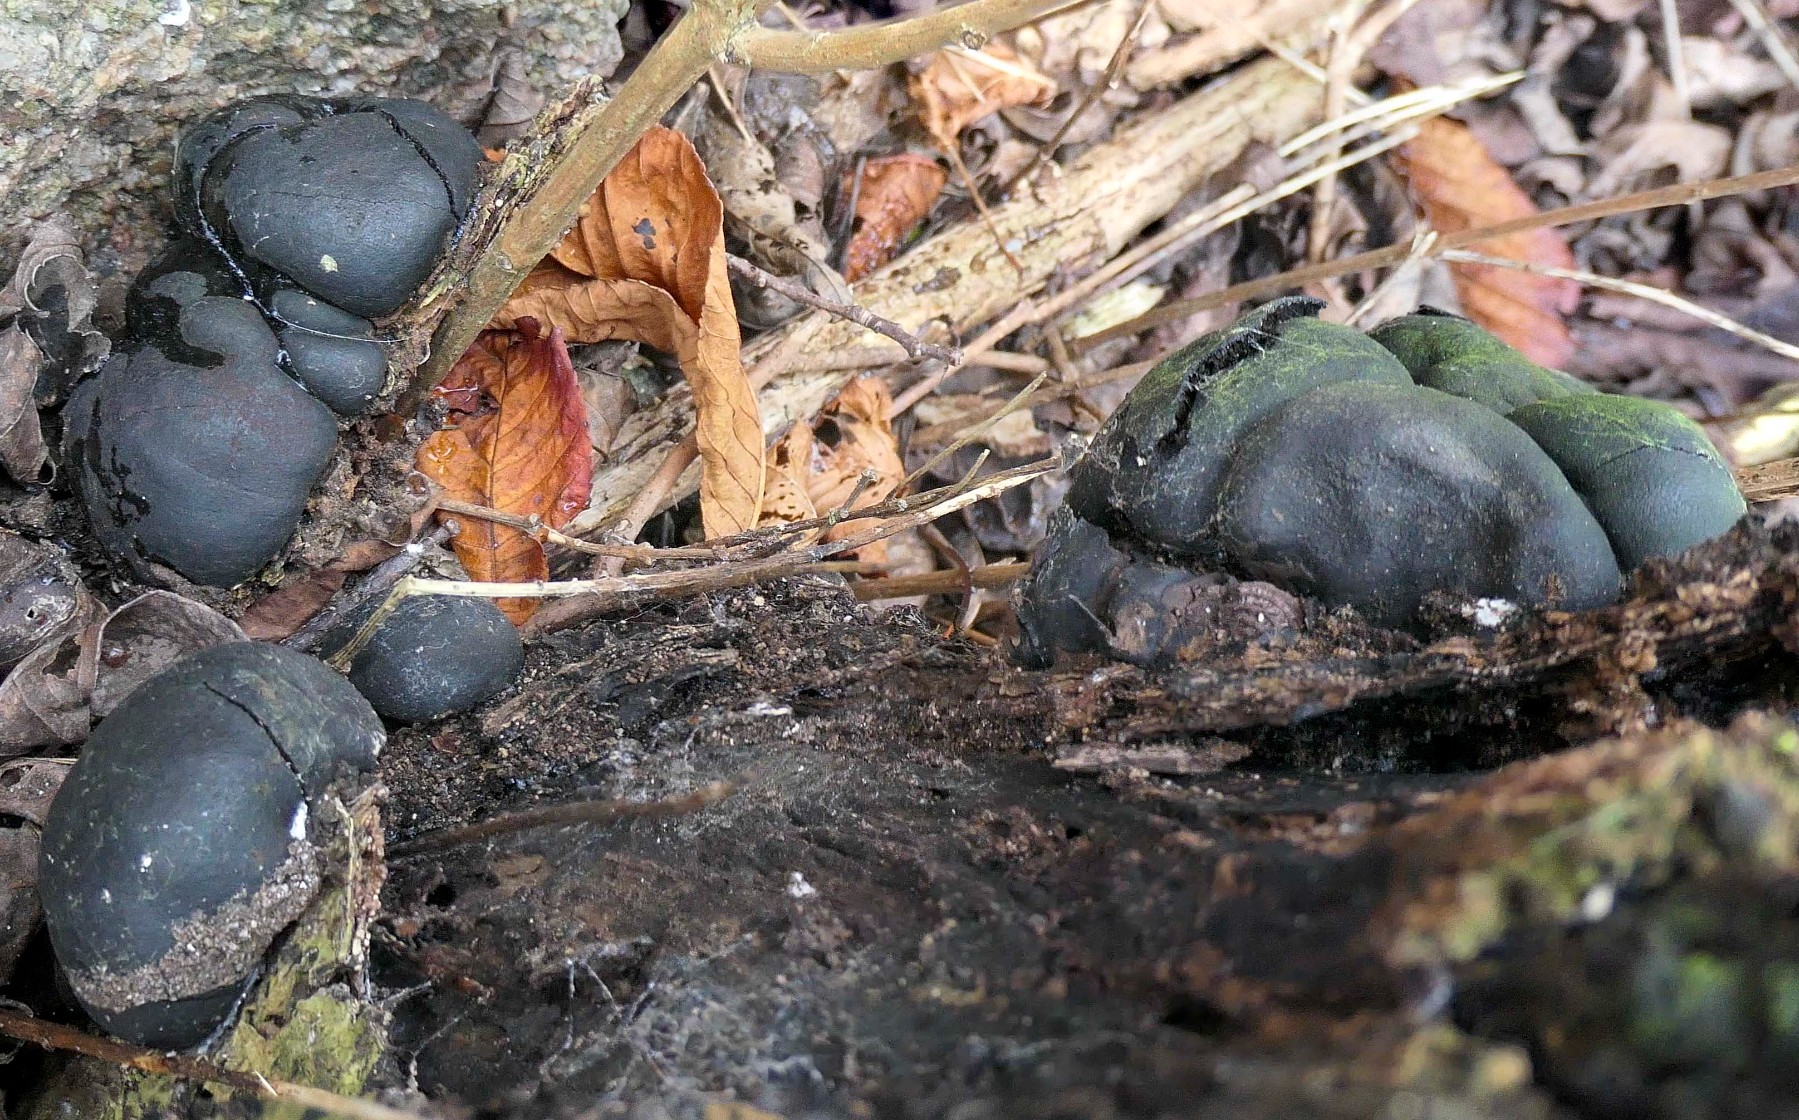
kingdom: Fungi
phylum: Ascomycota
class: Sordariomycetes
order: Xylariales
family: Hypoxylaceae
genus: Daldinia
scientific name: Daldinia concentrica
